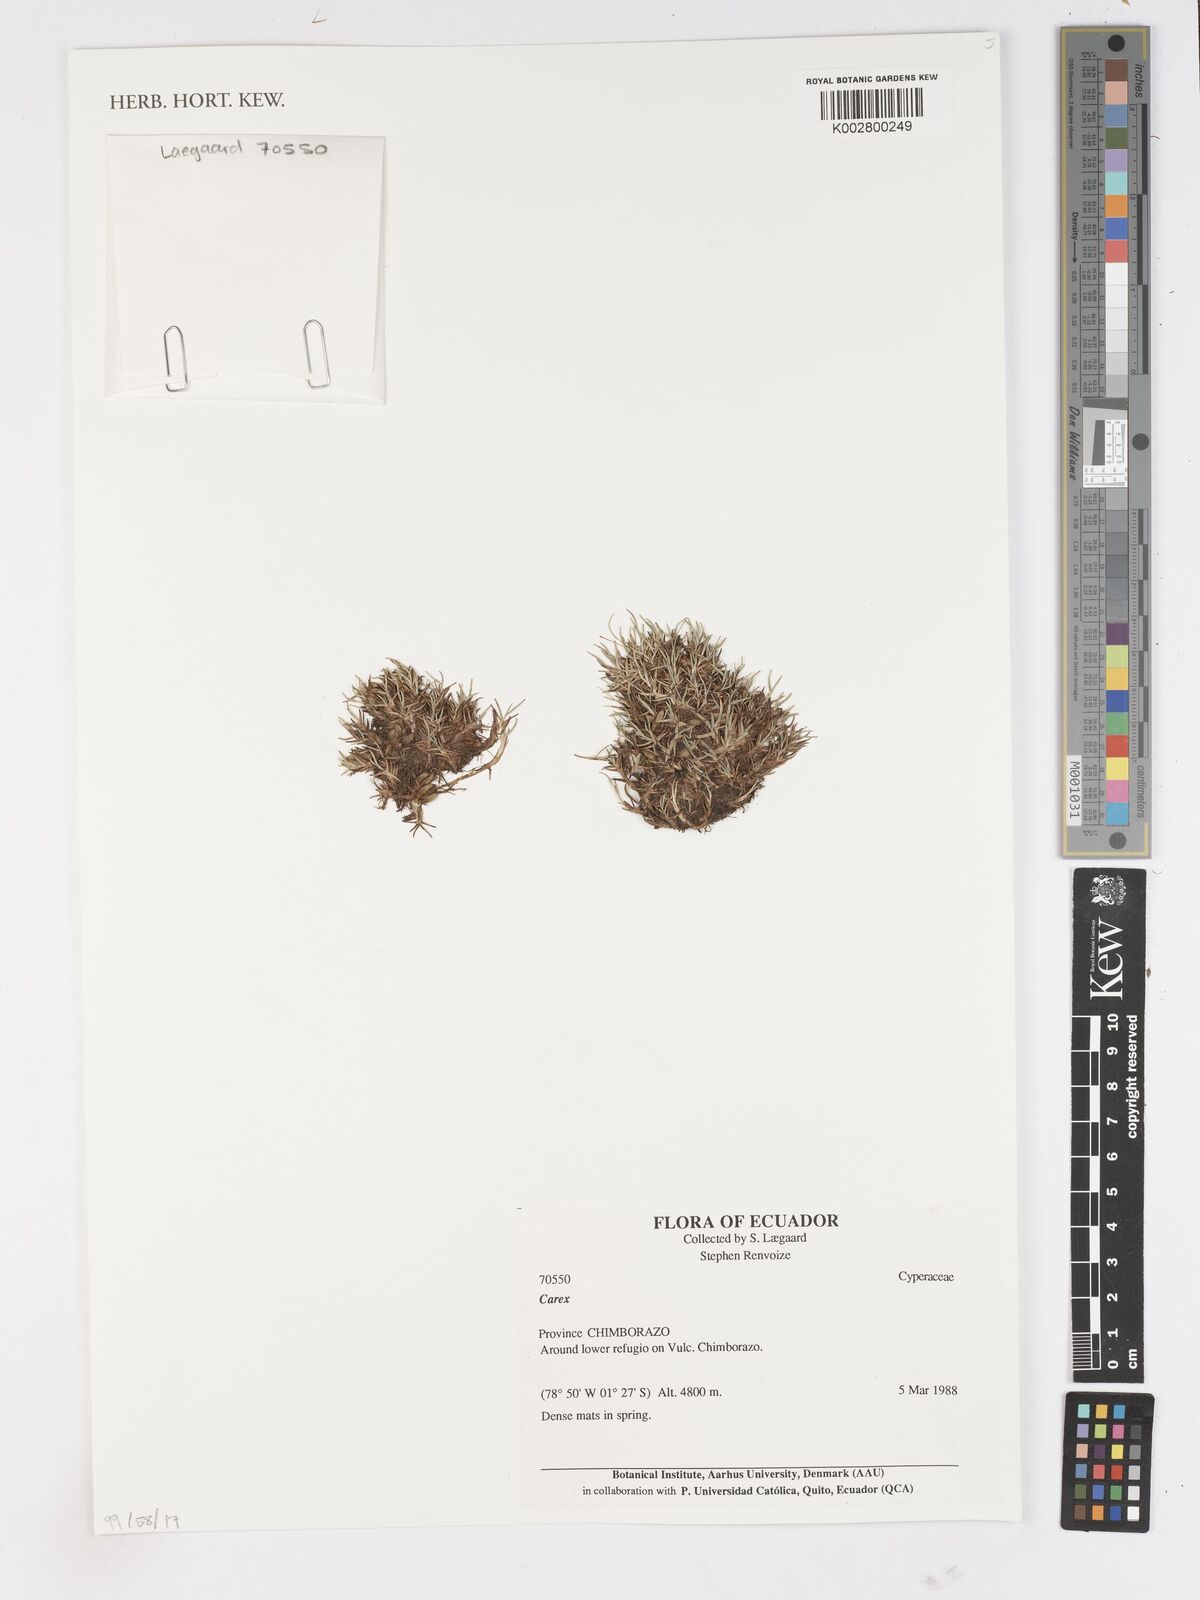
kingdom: Plantae
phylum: Tracheophyta
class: Liliopsida
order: Poales
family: Cyperaceae
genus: Carex
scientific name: Carex
